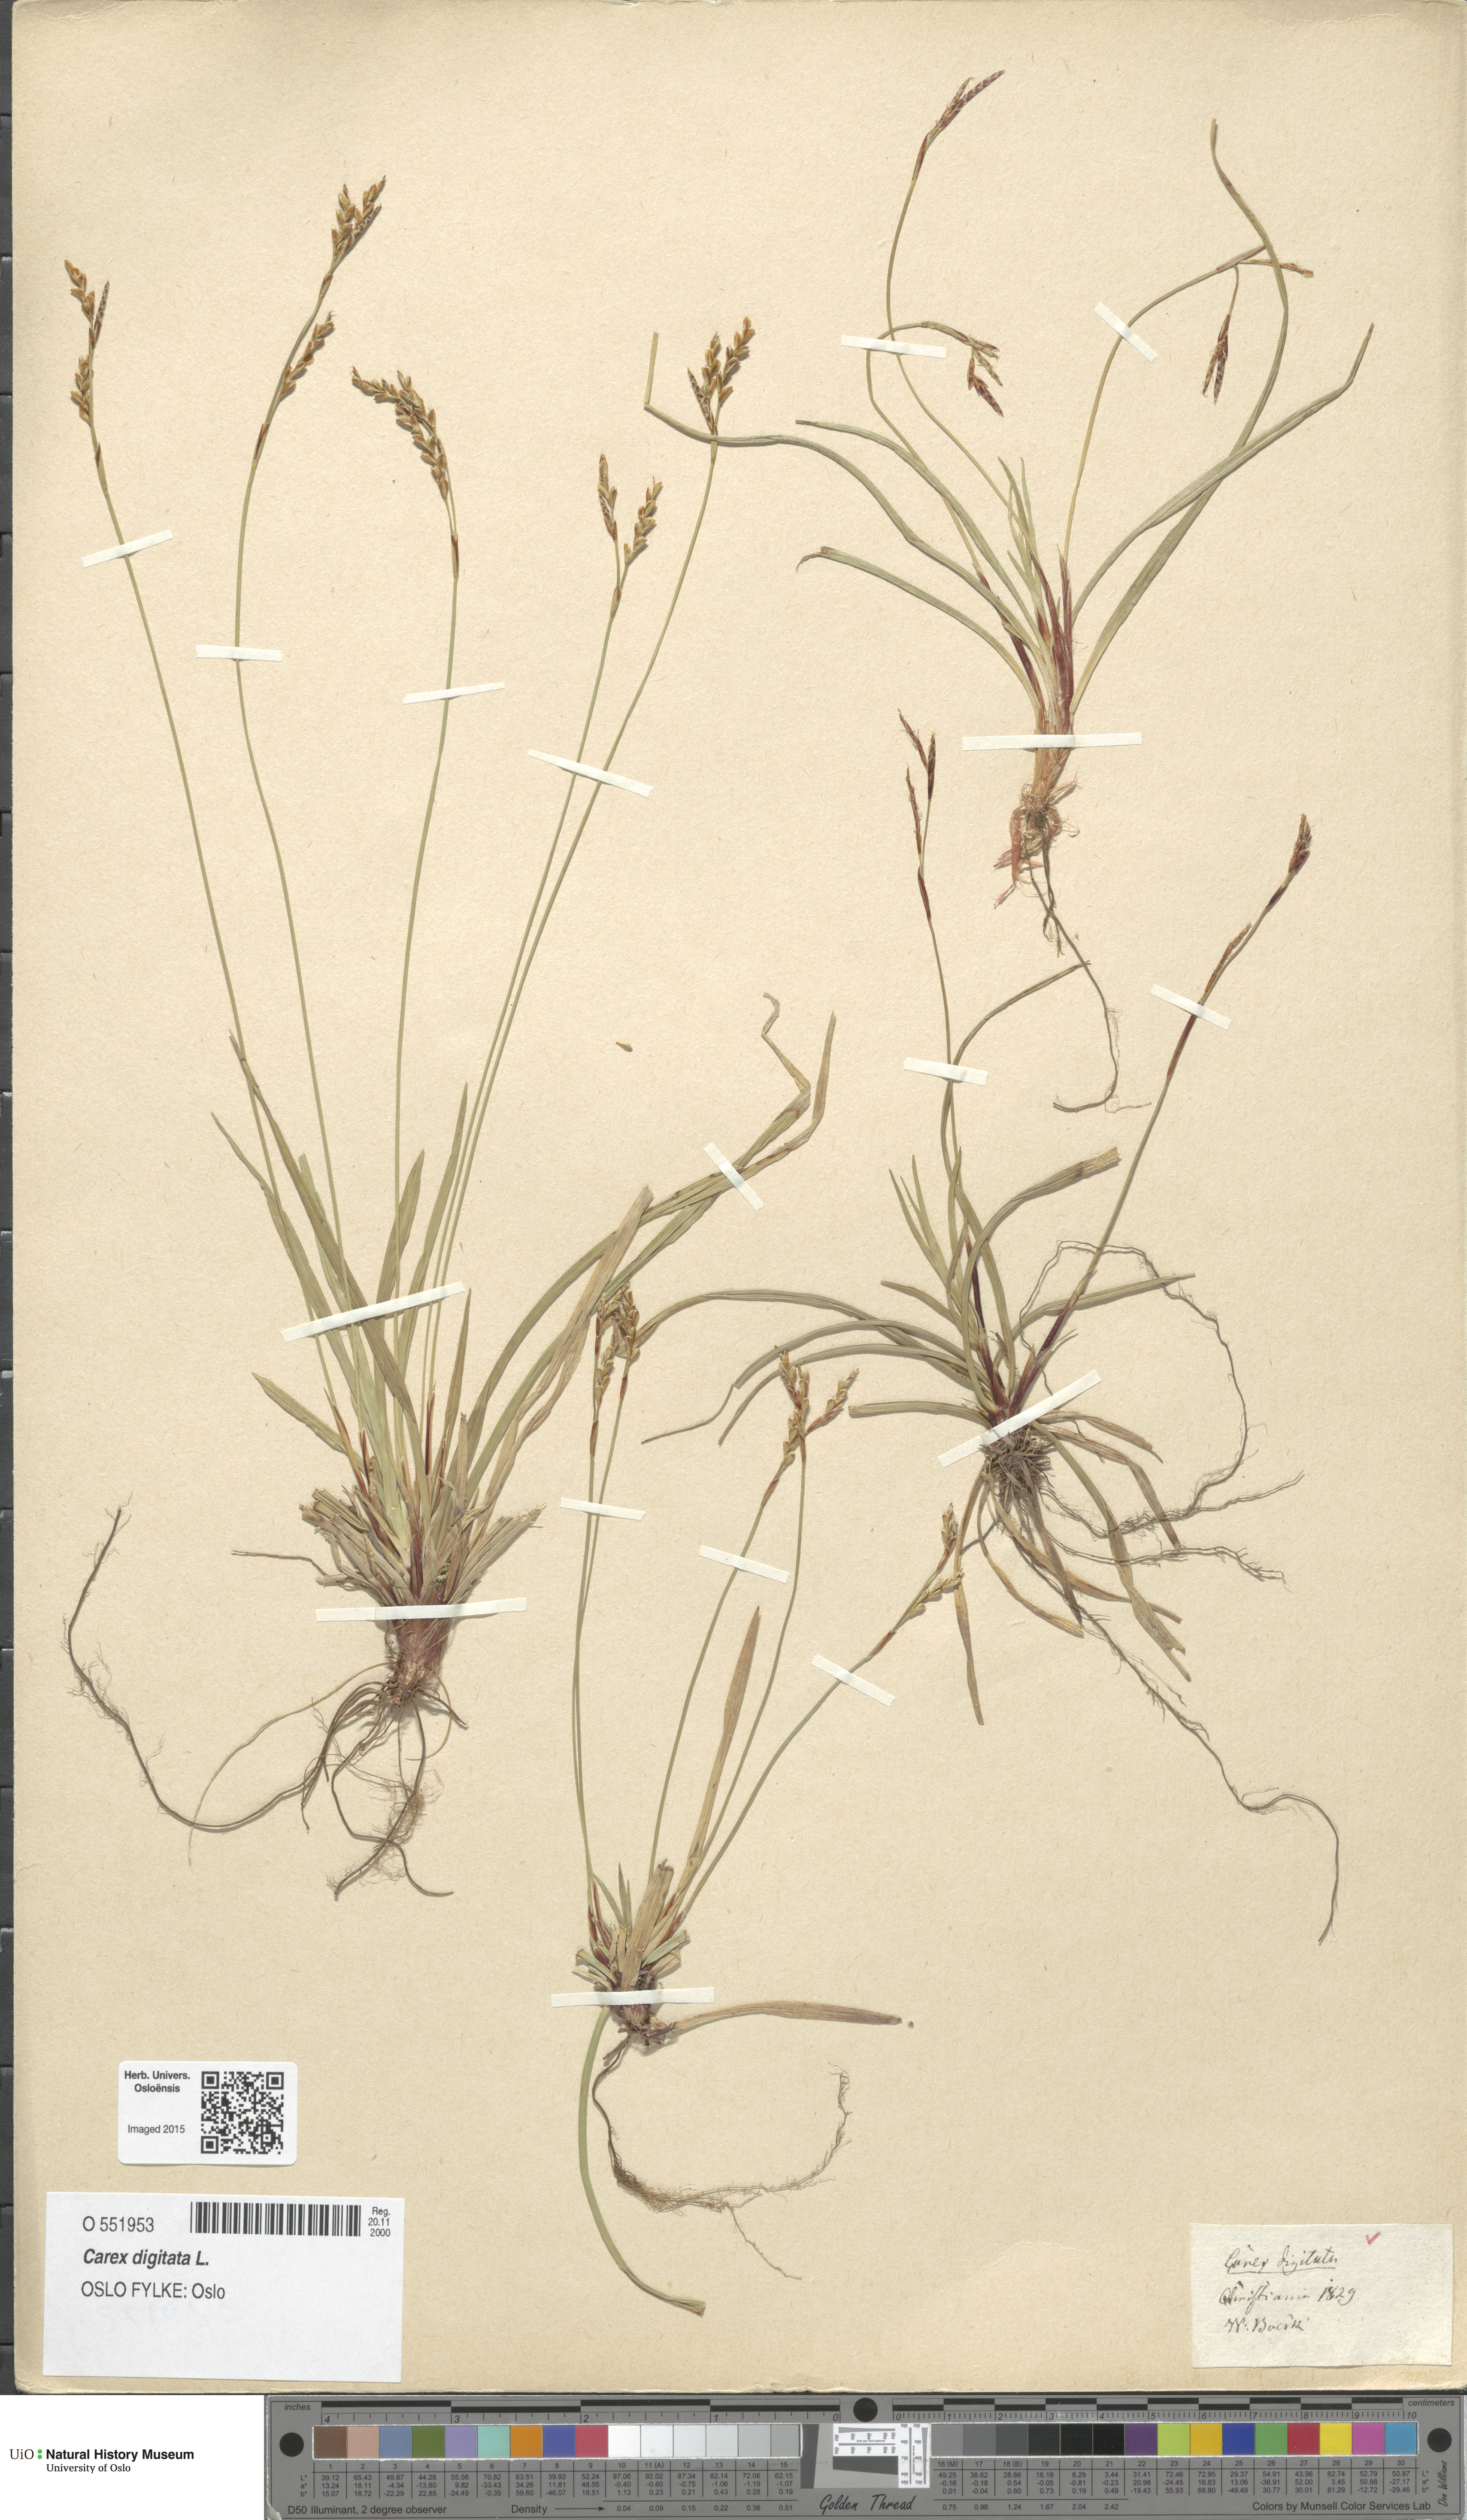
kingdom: Plantae
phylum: Tracheophyta
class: Liliopsida
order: Poales
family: Cyperaceae
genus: Carex
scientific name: Carex digitata
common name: Fingered sedge
